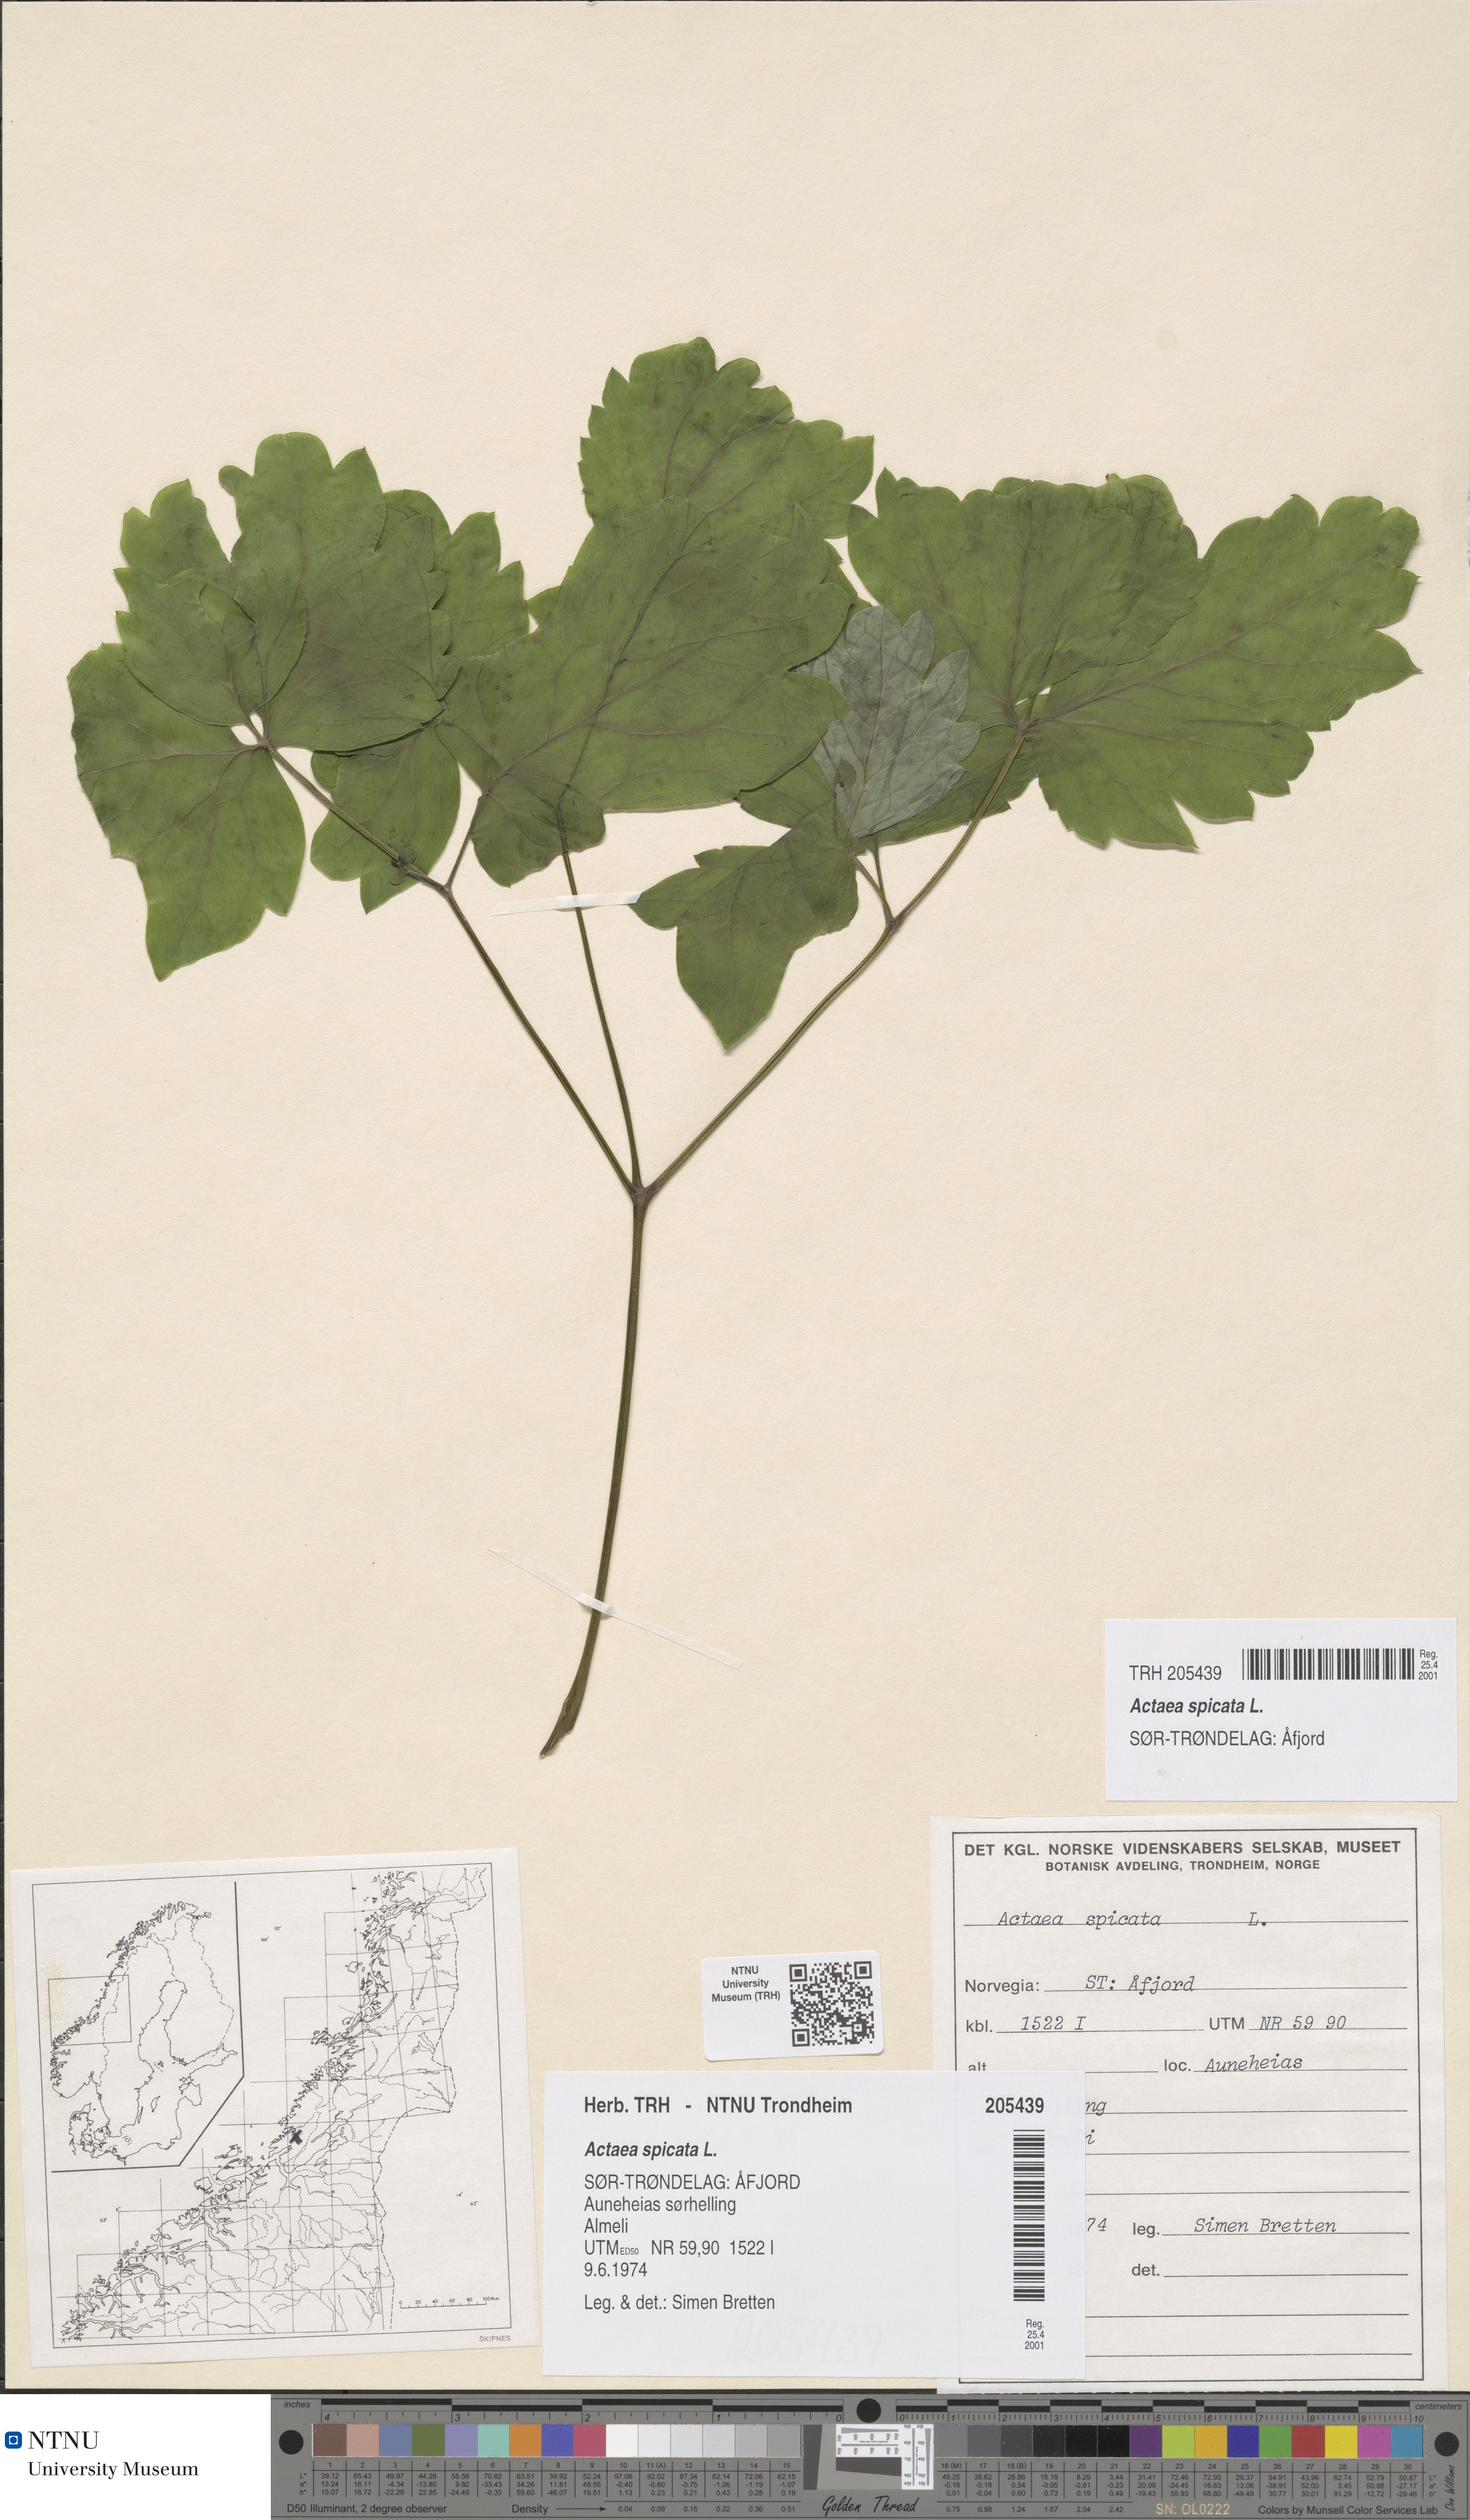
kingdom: Plantae
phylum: Tracheophyta
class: Magnoliopsida
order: Ranunculales
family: Ranunculaceae
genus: Actaea
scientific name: Actaea spicata
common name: Baneberry
